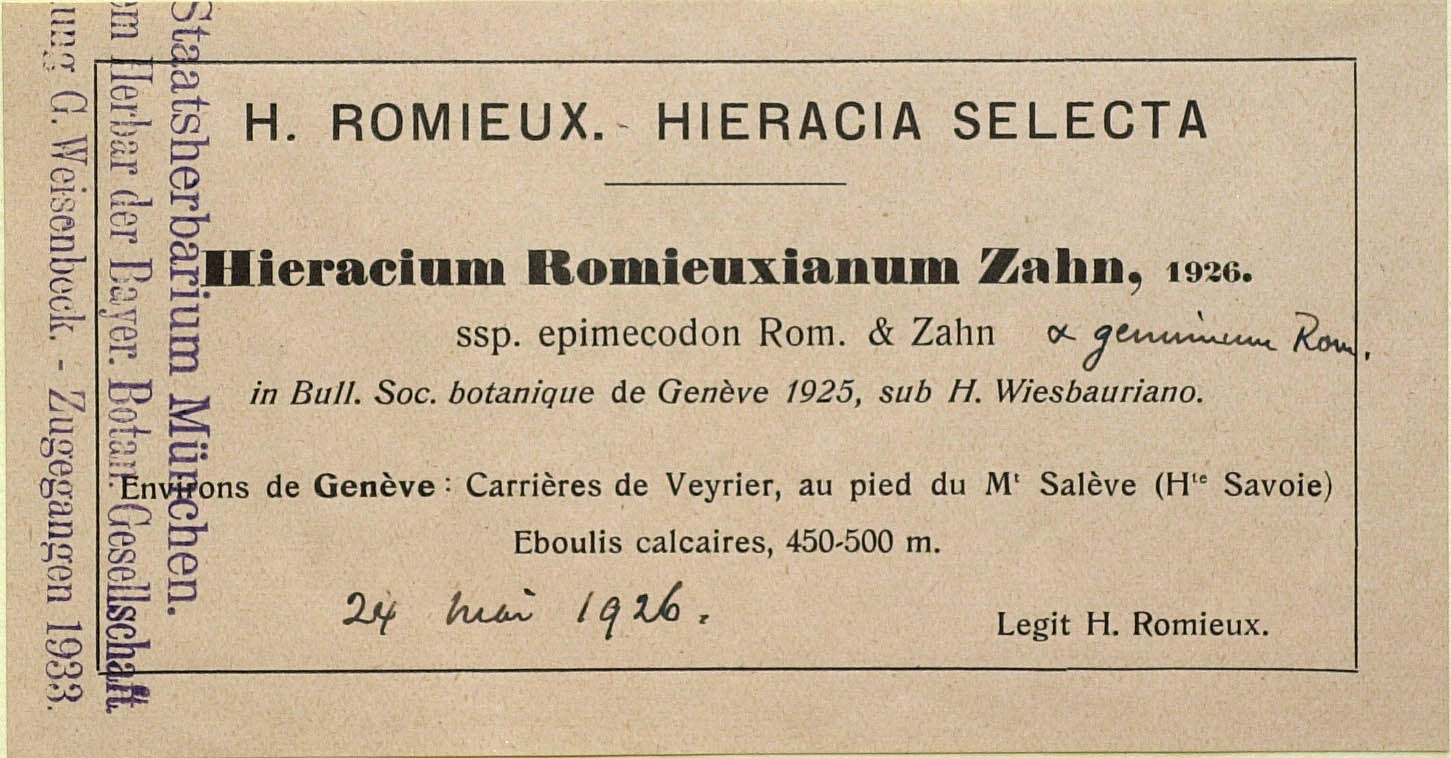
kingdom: Plantae
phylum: Tracheophyta
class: Magnoliopsida
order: Asterales
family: Asteraceae
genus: Hieracium
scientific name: Hieracium hypochoeroides
